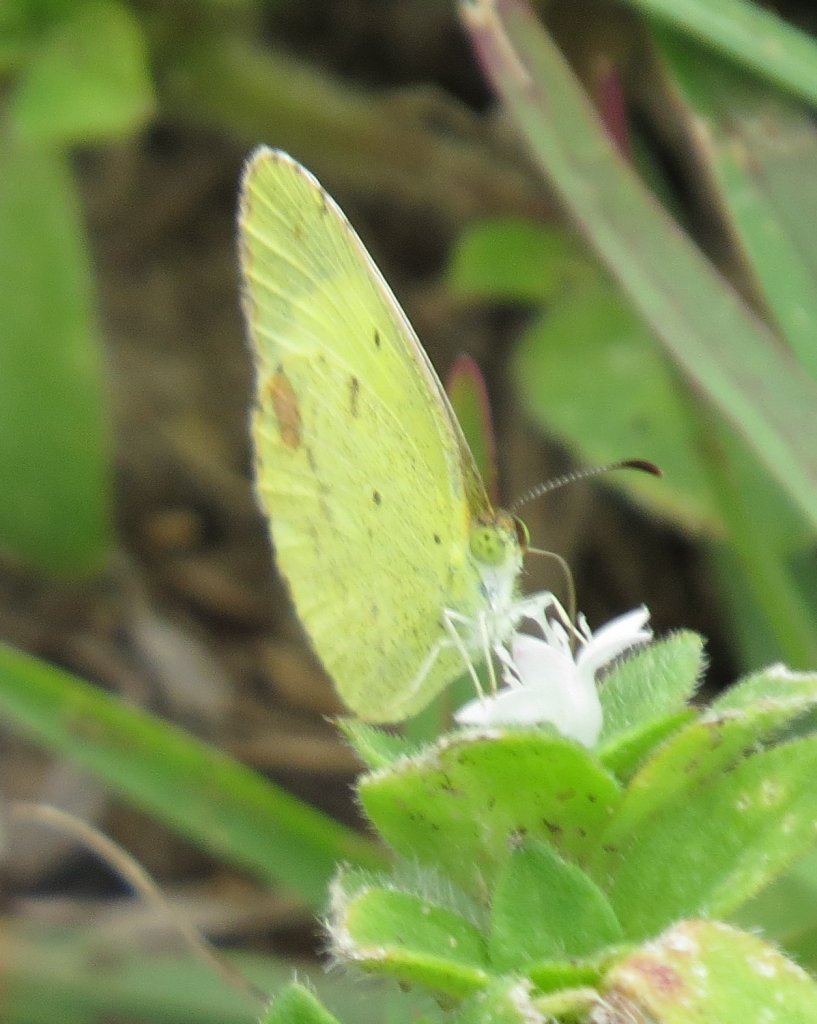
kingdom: Animalia
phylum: Arthropoda
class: Insecta
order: Lepidoptera
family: Pieridae
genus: Pyrisitia
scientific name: Pyrisitia lisa
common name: Little Yellow
